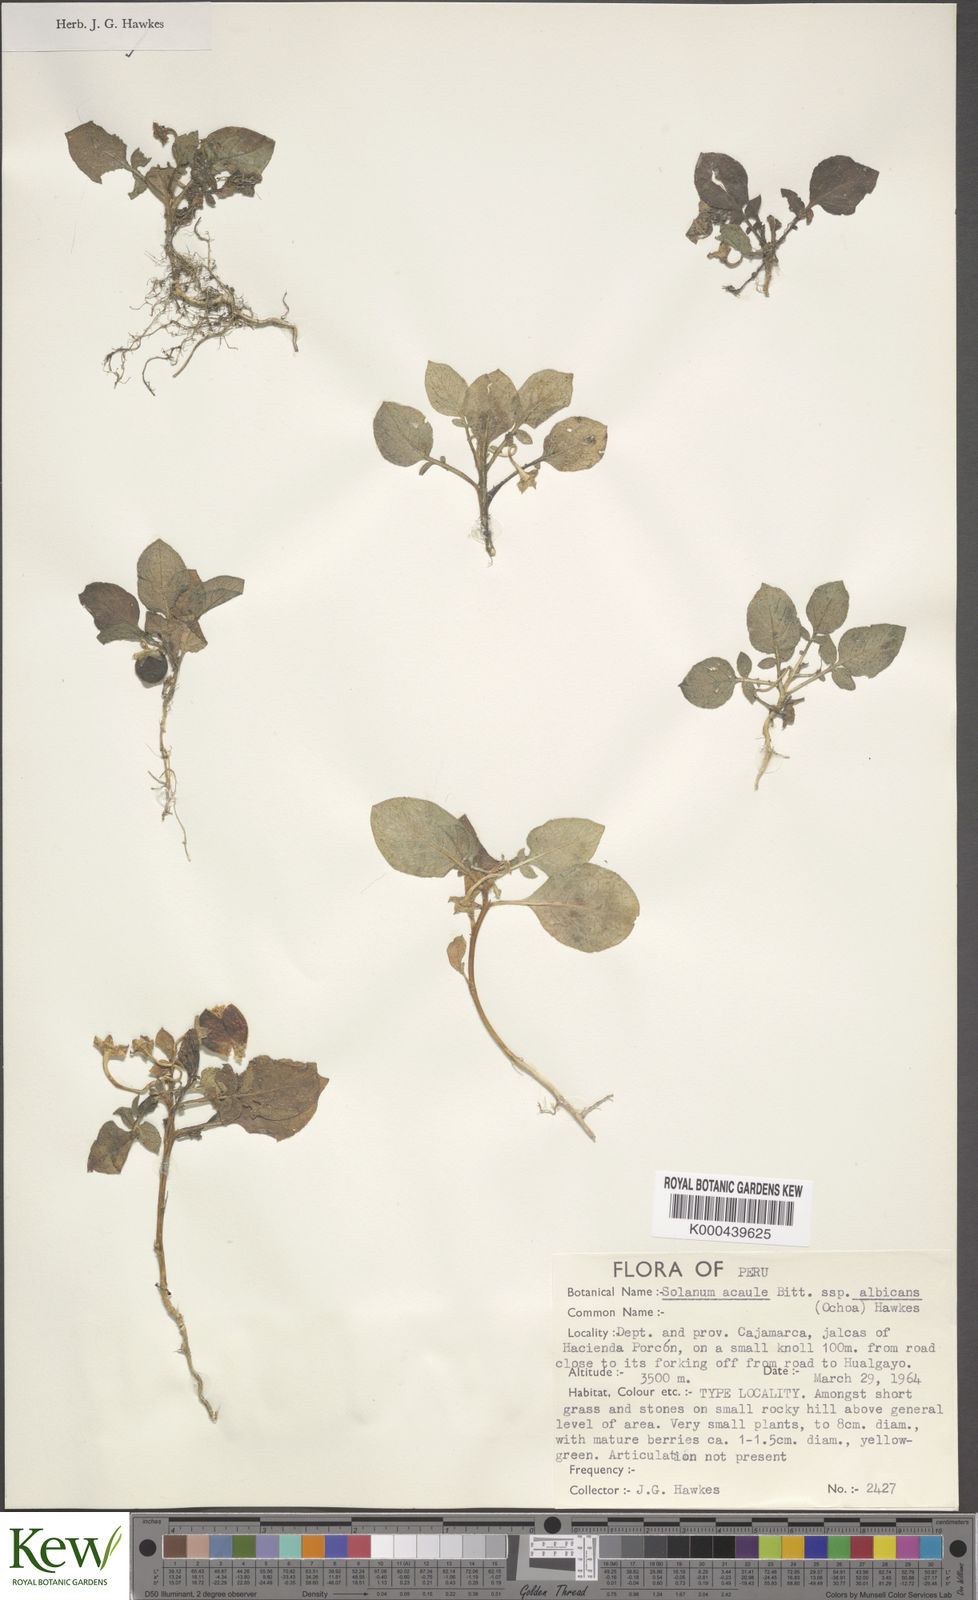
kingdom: Plantae
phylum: Tracheophyta
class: Magnoliopsida
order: Solanales
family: Solanaceae
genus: Solanum
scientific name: Solanum acaule
